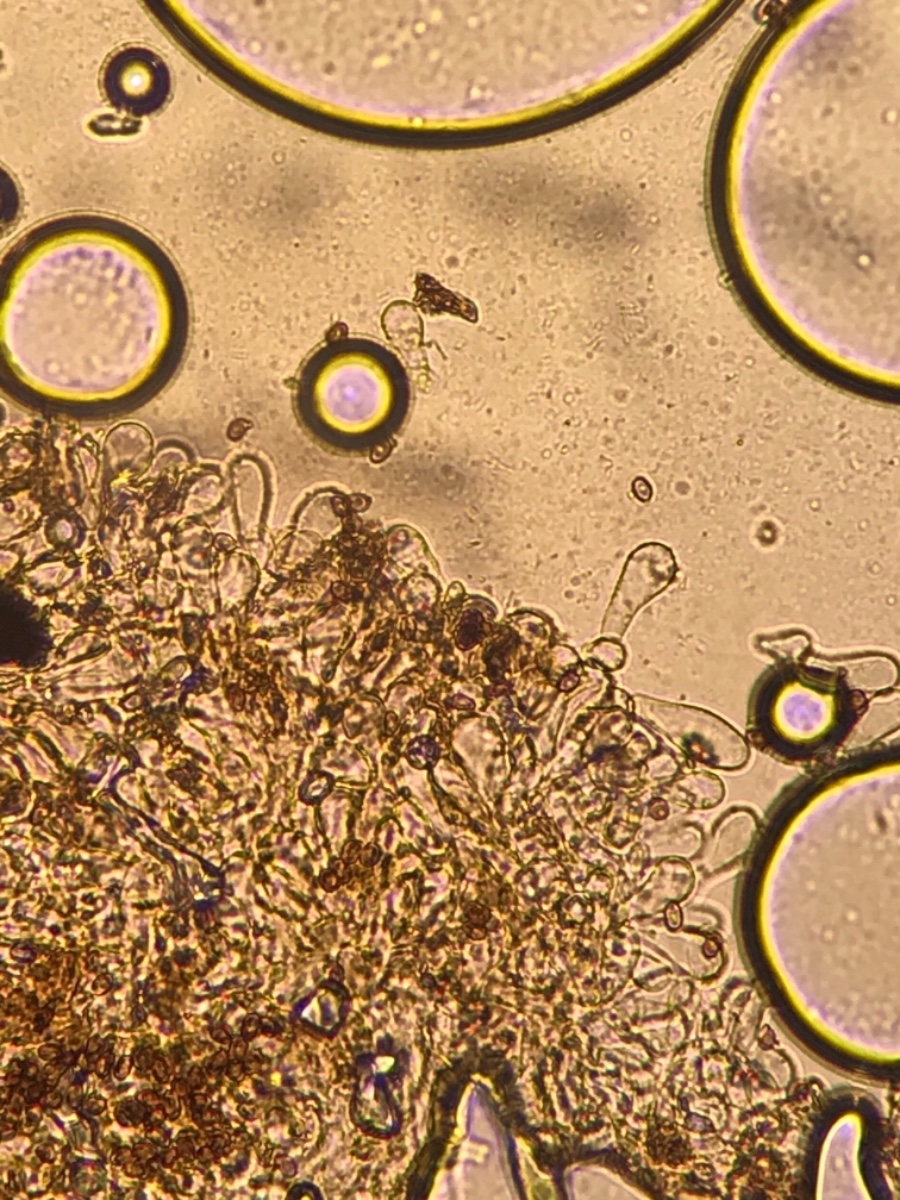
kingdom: Fungi
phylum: Basidiomycota
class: Agaricomycetes
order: Agaricales
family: Agaricaceae
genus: Agaricus
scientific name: Agaricus sylvaticus
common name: lille blod-champignon
